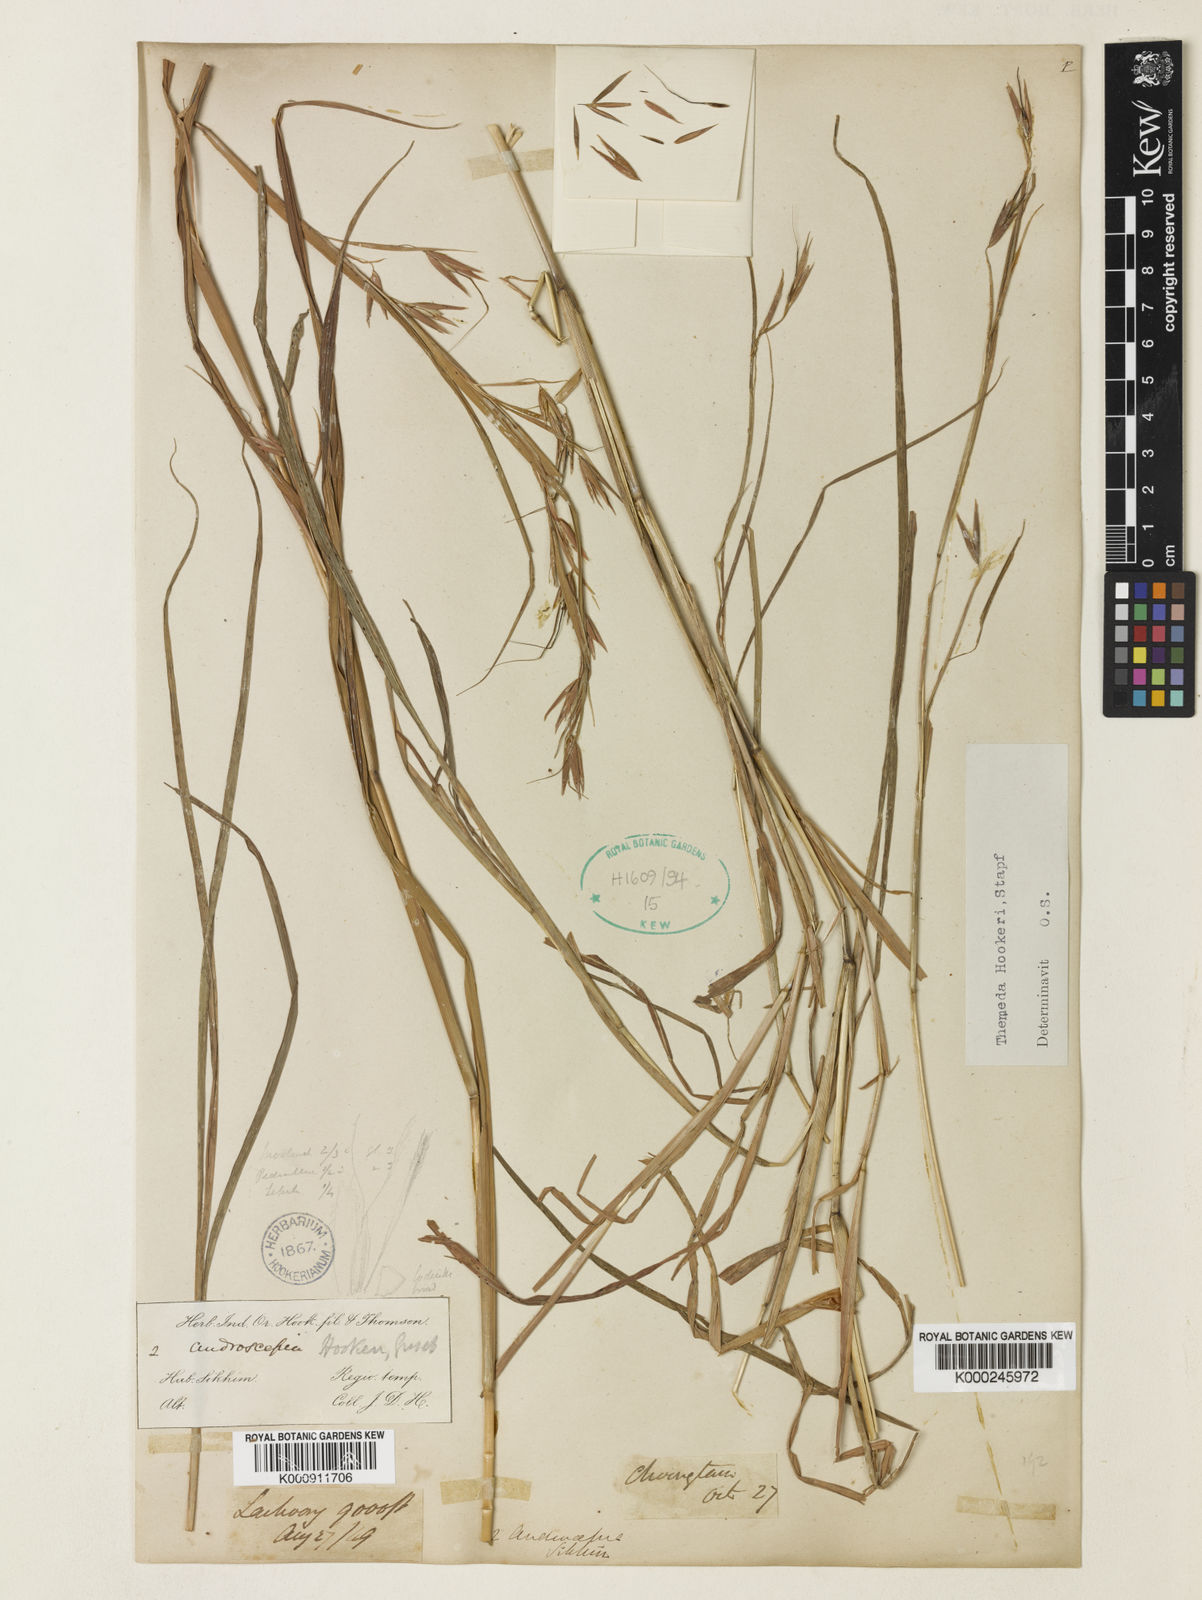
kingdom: Plantae
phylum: Tracheophyta
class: Liliopsida
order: Poales
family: Poaceae
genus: Themeda
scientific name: Themeda hookeri
